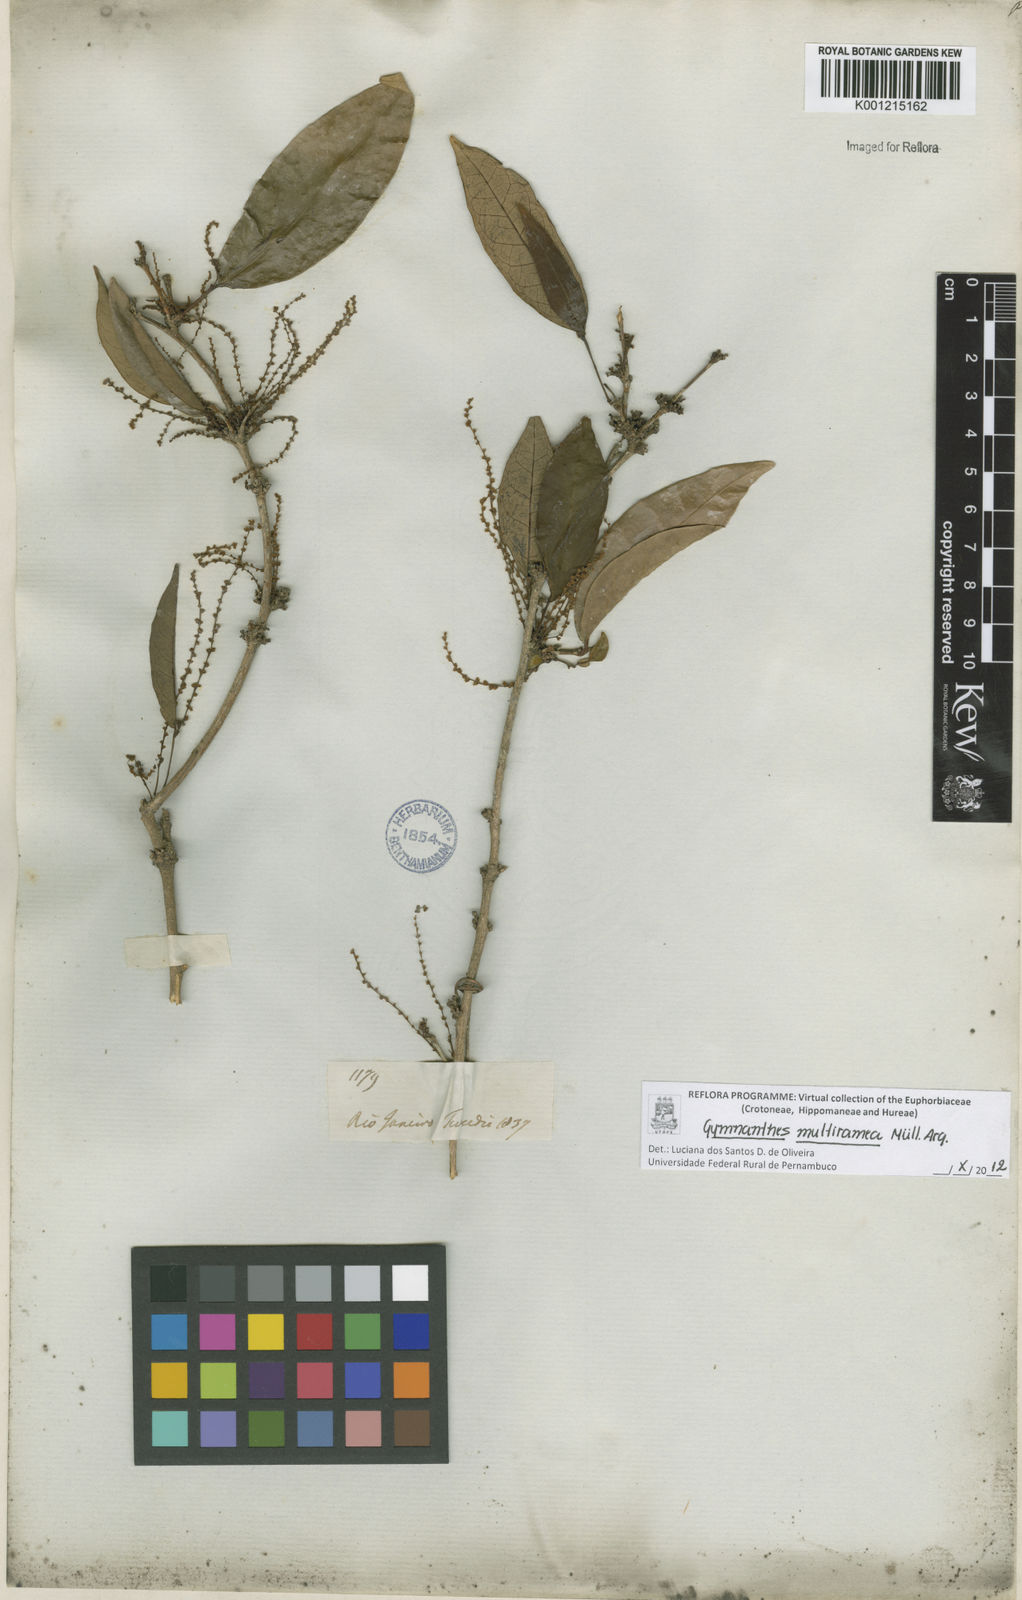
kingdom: Plantae
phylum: Tracheophyta
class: Magnoliopsida
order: Malpighiales
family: Euphorbiaceae
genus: Gymnanthes
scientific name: Gymnanthes
